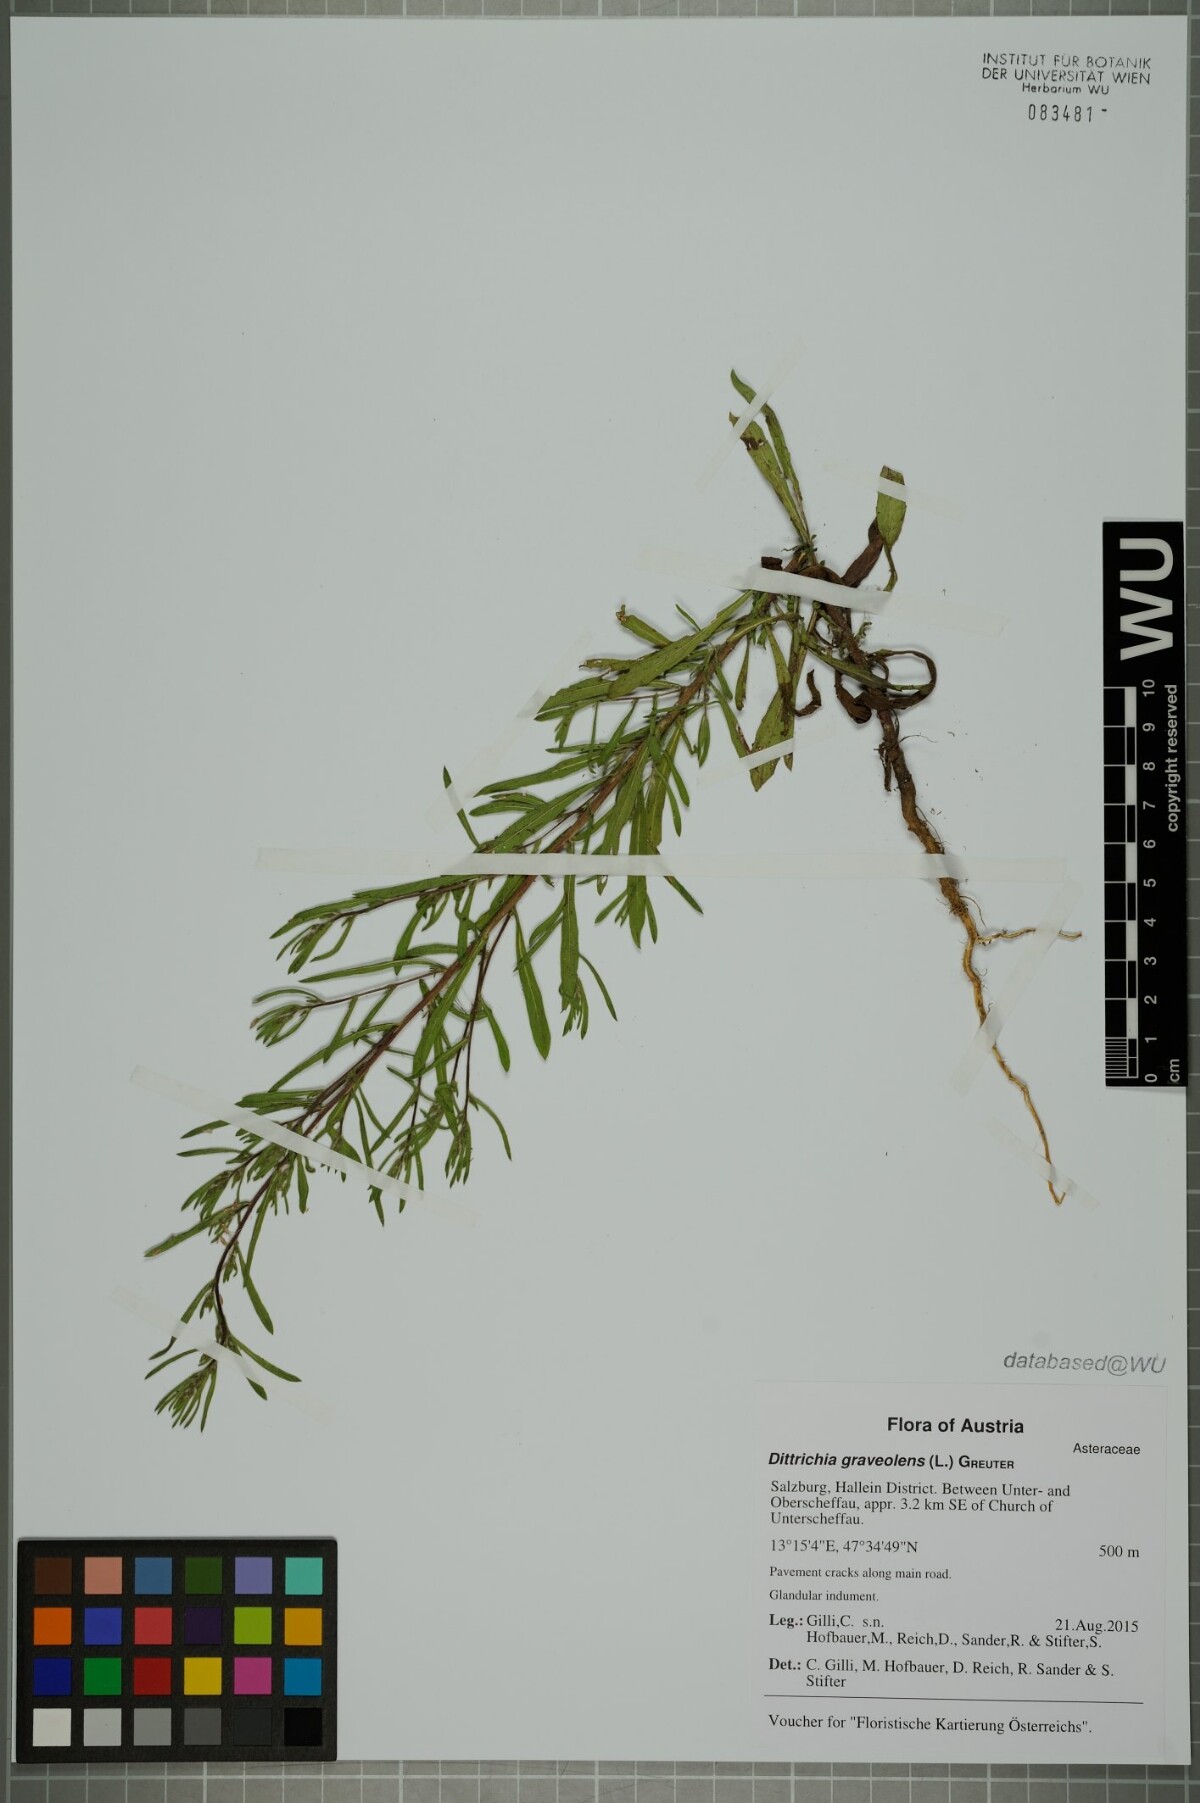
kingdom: Plantae
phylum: Tracheophyta
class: Magnoliopsida
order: Asterales
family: Asteraceae
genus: Dittrichia
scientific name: Dittrichia graveolens
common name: Stinking fleabane
